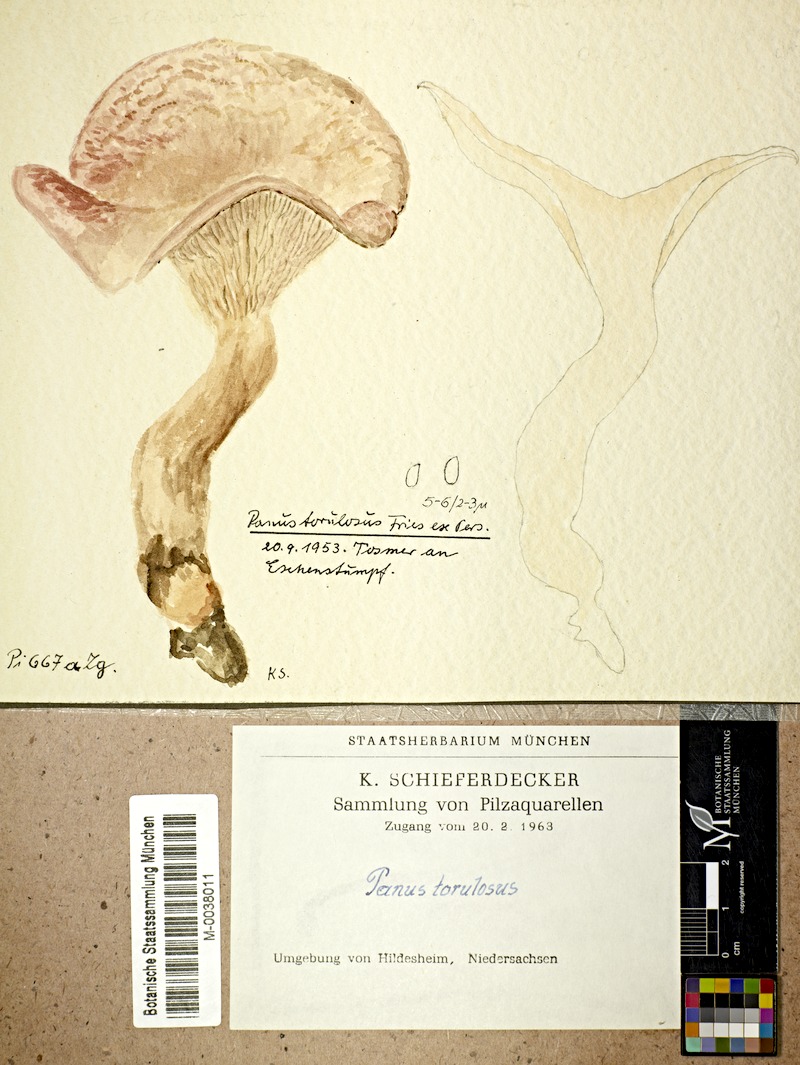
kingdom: Fungi
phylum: Basidiomycota
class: Agaricomycetes
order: Polyporales
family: Panaceae
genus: Panus
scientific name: Panus conchatus
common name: Lilac oysterling
